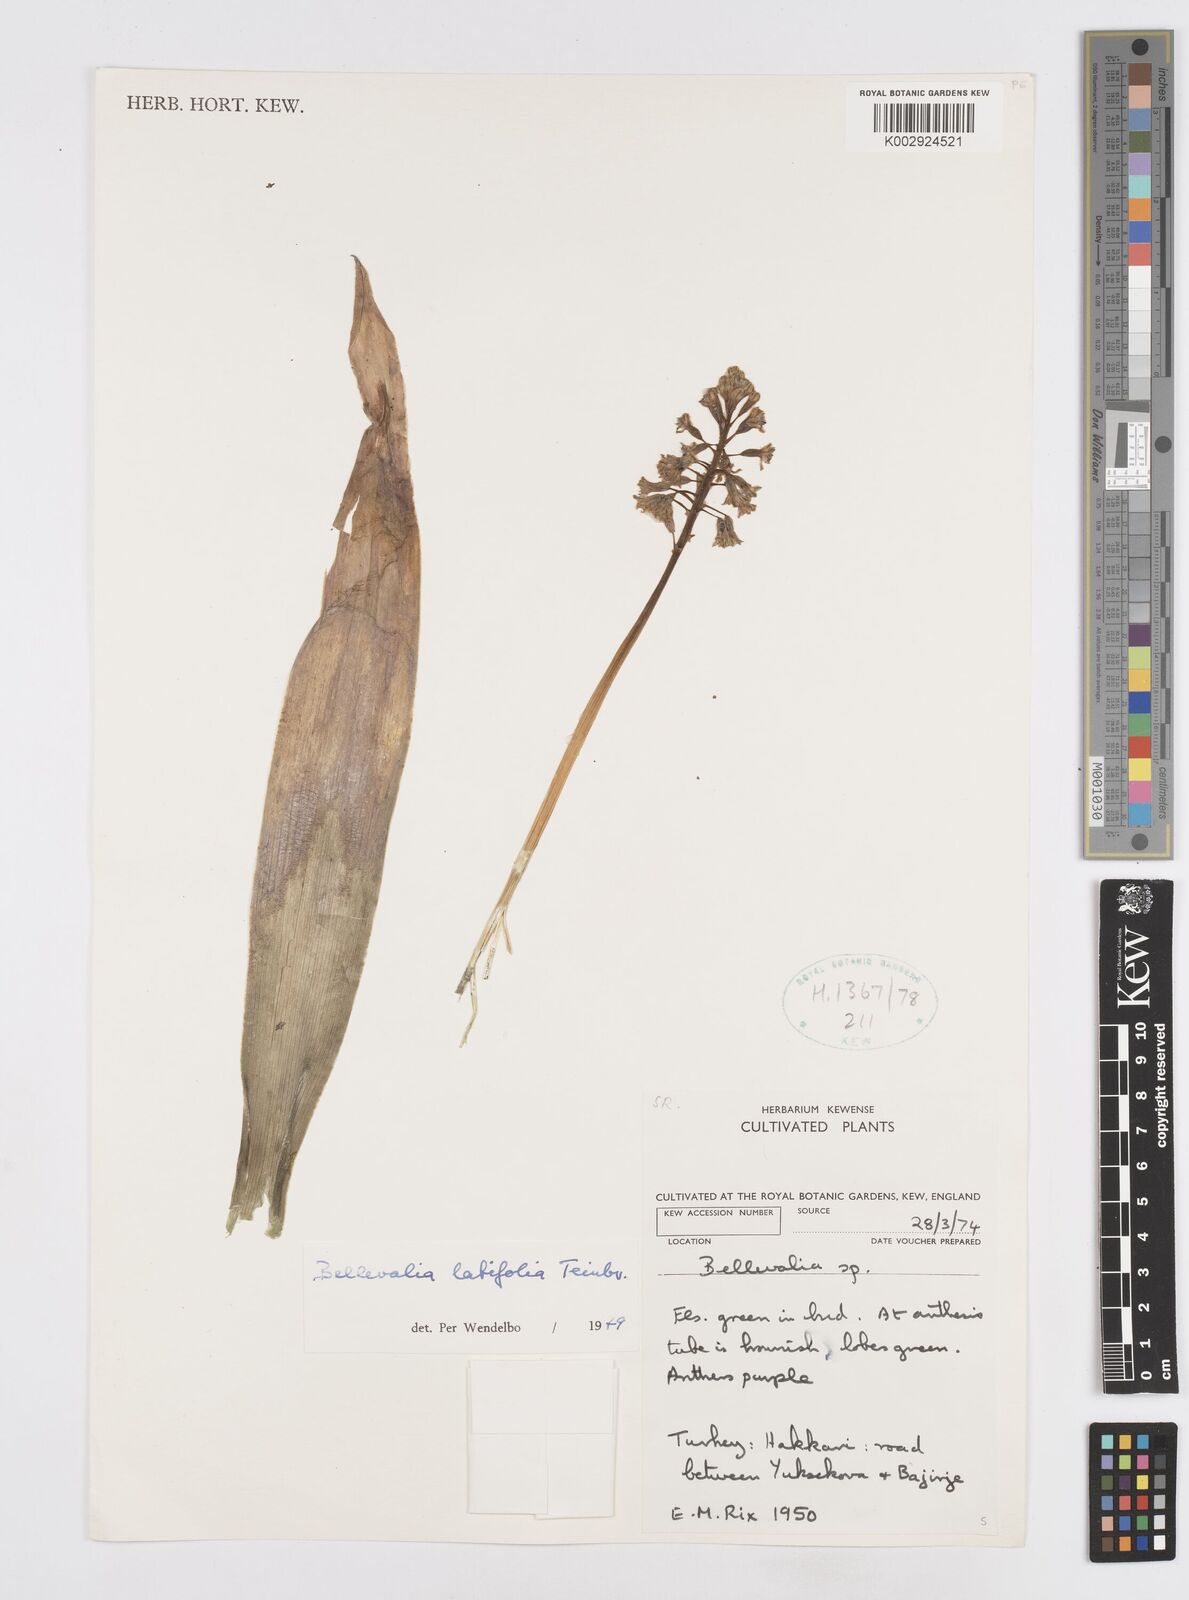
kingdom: Plantae
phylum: Tracheophyta
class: Liliopsida
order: Asparagales
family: Asparagaceae
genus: Bellevalia
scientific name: Bellevalia olivieri
